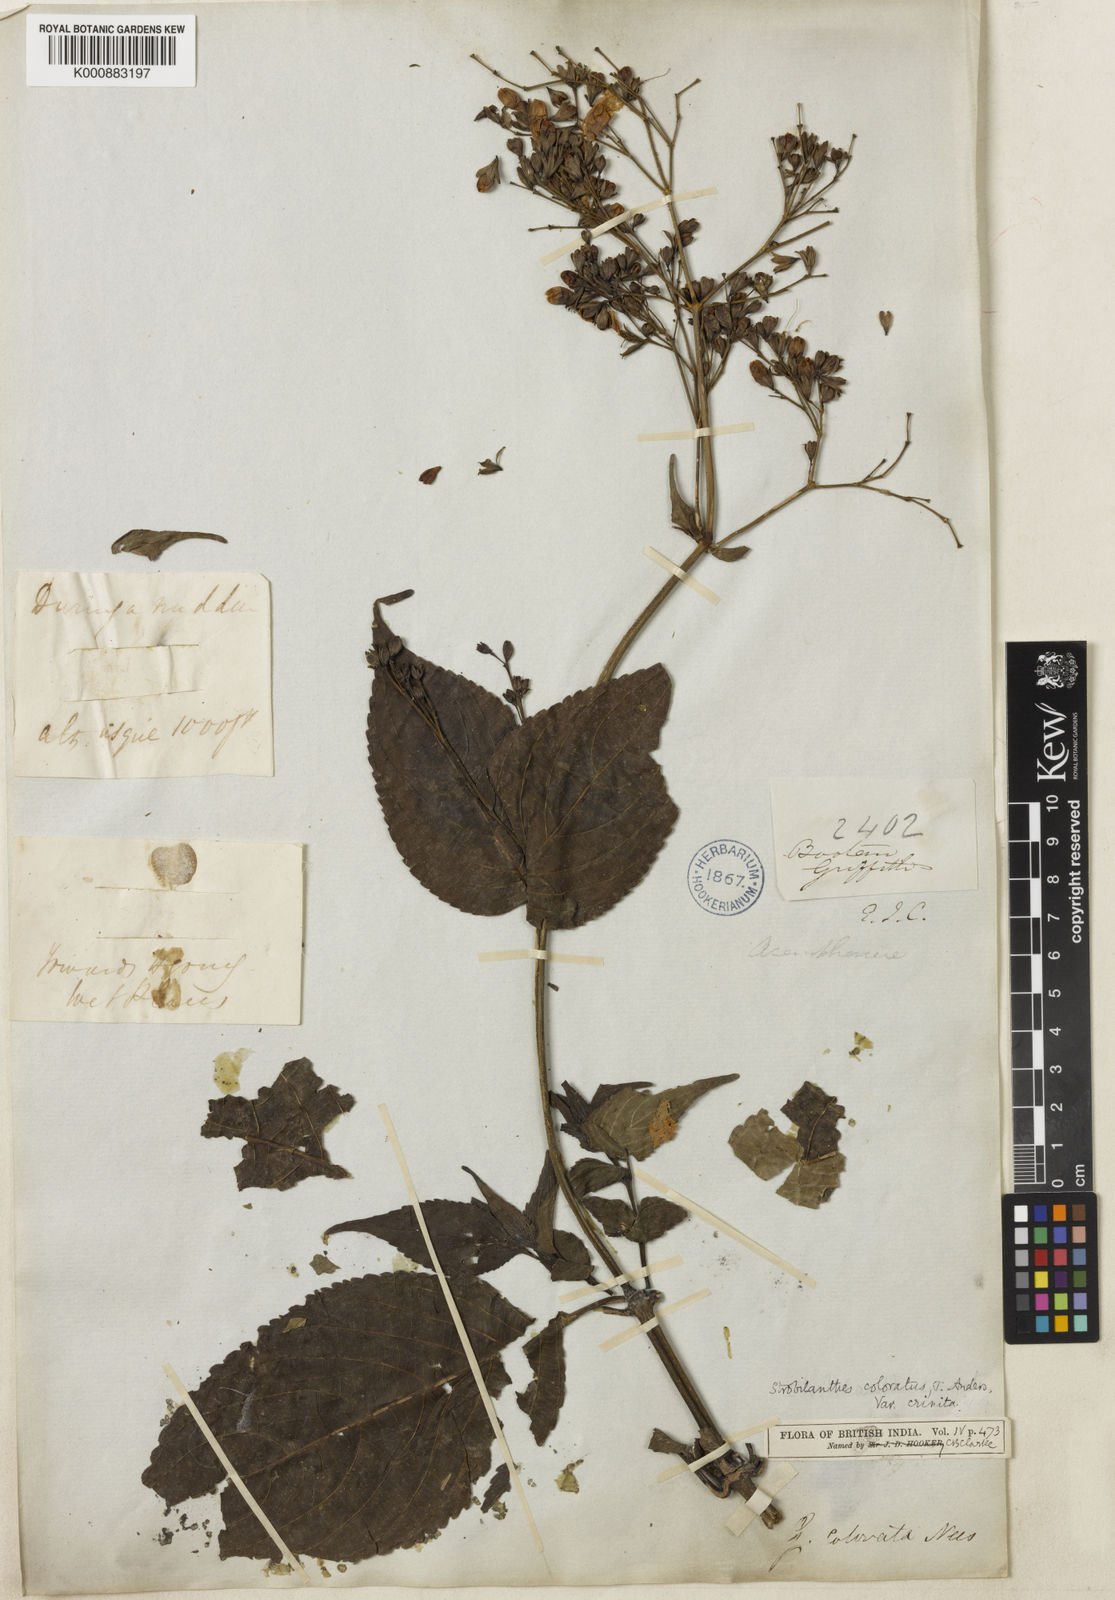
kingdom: Plantae
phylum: Tracheophyta
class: Magnoliopsida
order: Lamiales
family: Acanthaceae
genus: Strobilanthes
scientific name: Strobilanthes
